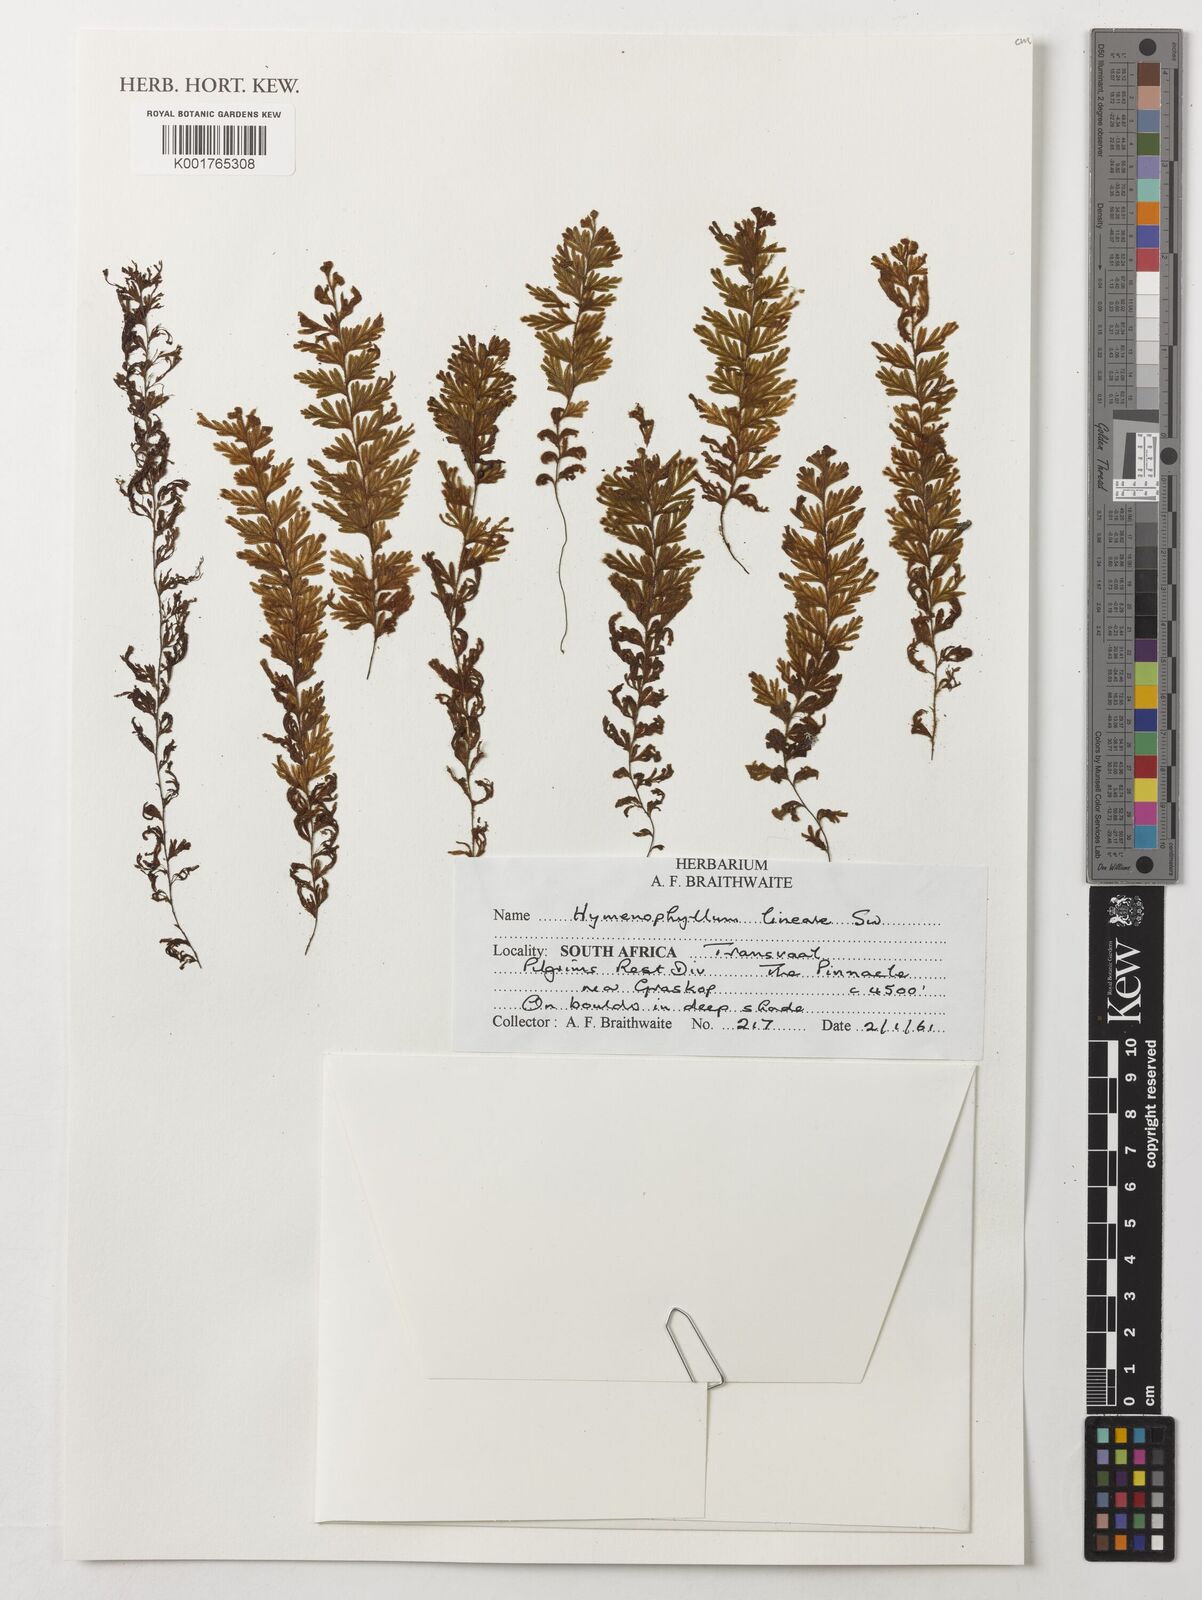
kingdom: Plantae
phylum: Tracheophyta
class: Polypodiopsida
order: Hymenophyllales
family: Hymenophyllaceae
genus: Hymenophyllum
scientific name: Hymenophyllum lineare
